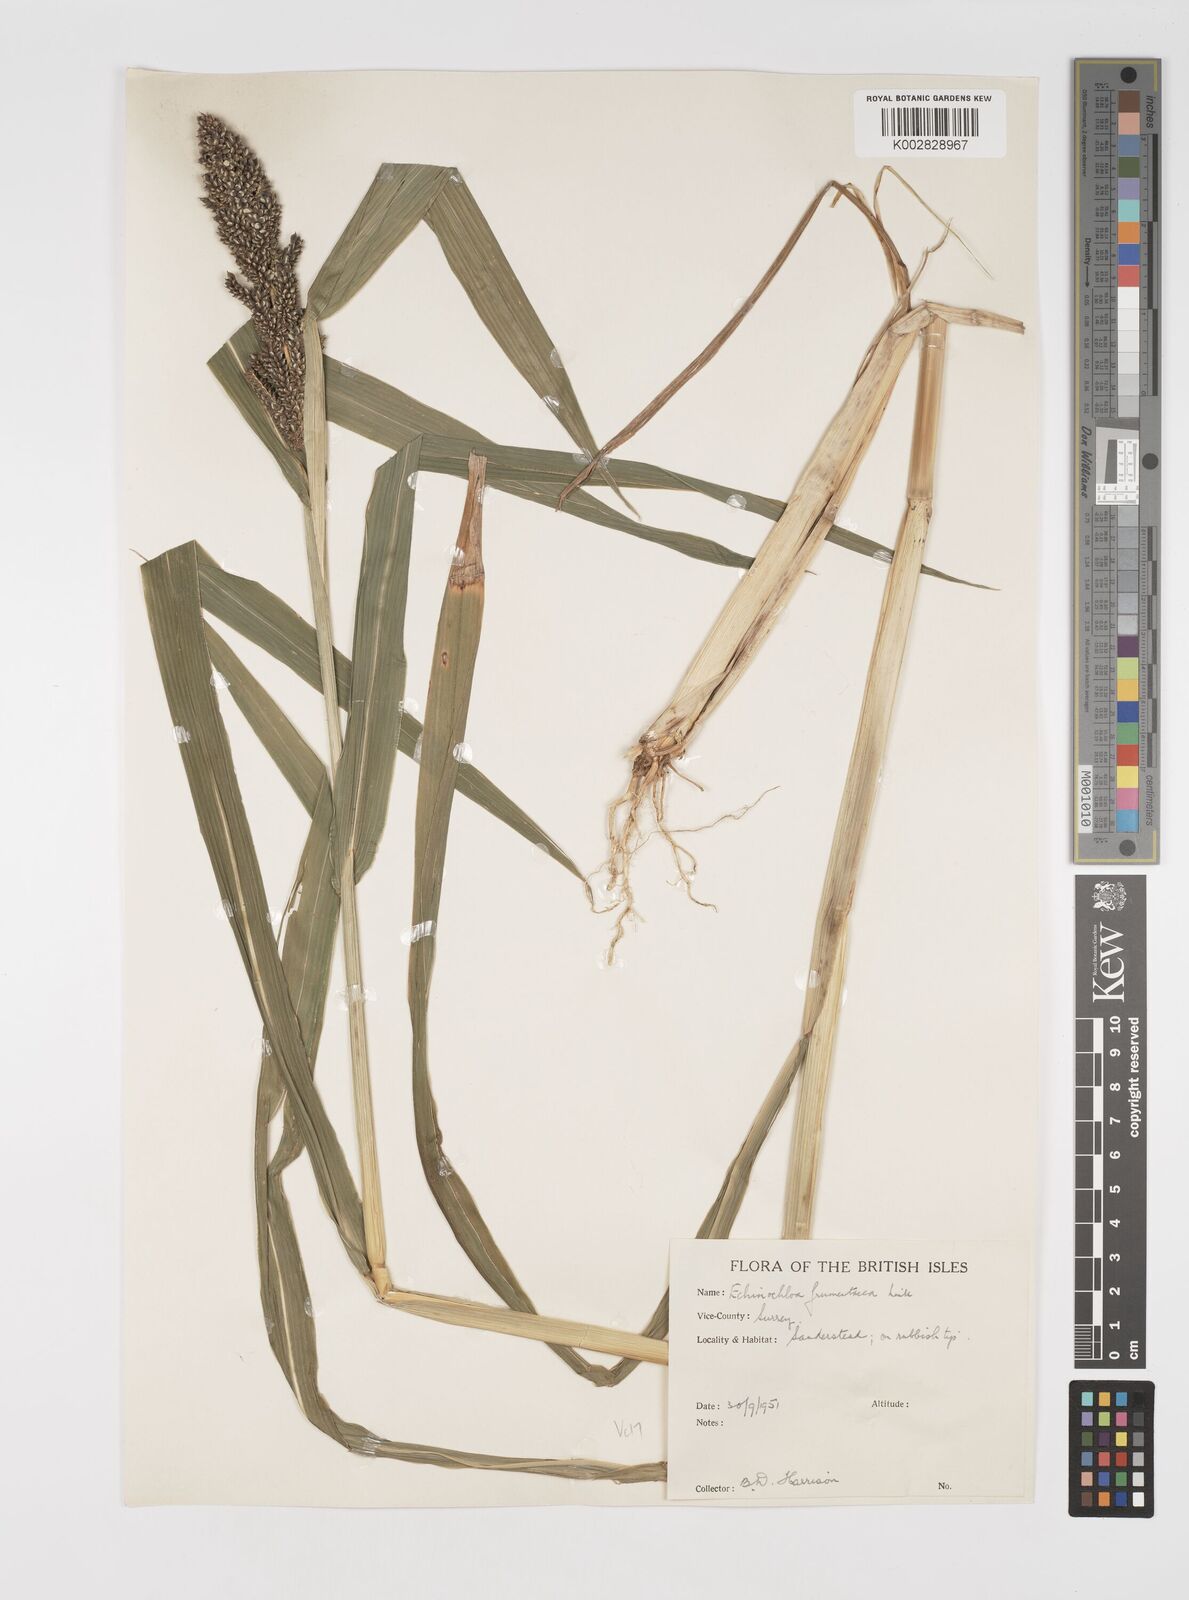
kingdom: Plantae
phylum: Tracheophyta
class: Liliopsida
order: Poales
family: Poaceae
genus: Echinochloa
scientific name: Echinochloa crus-galli
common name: Cockspur
